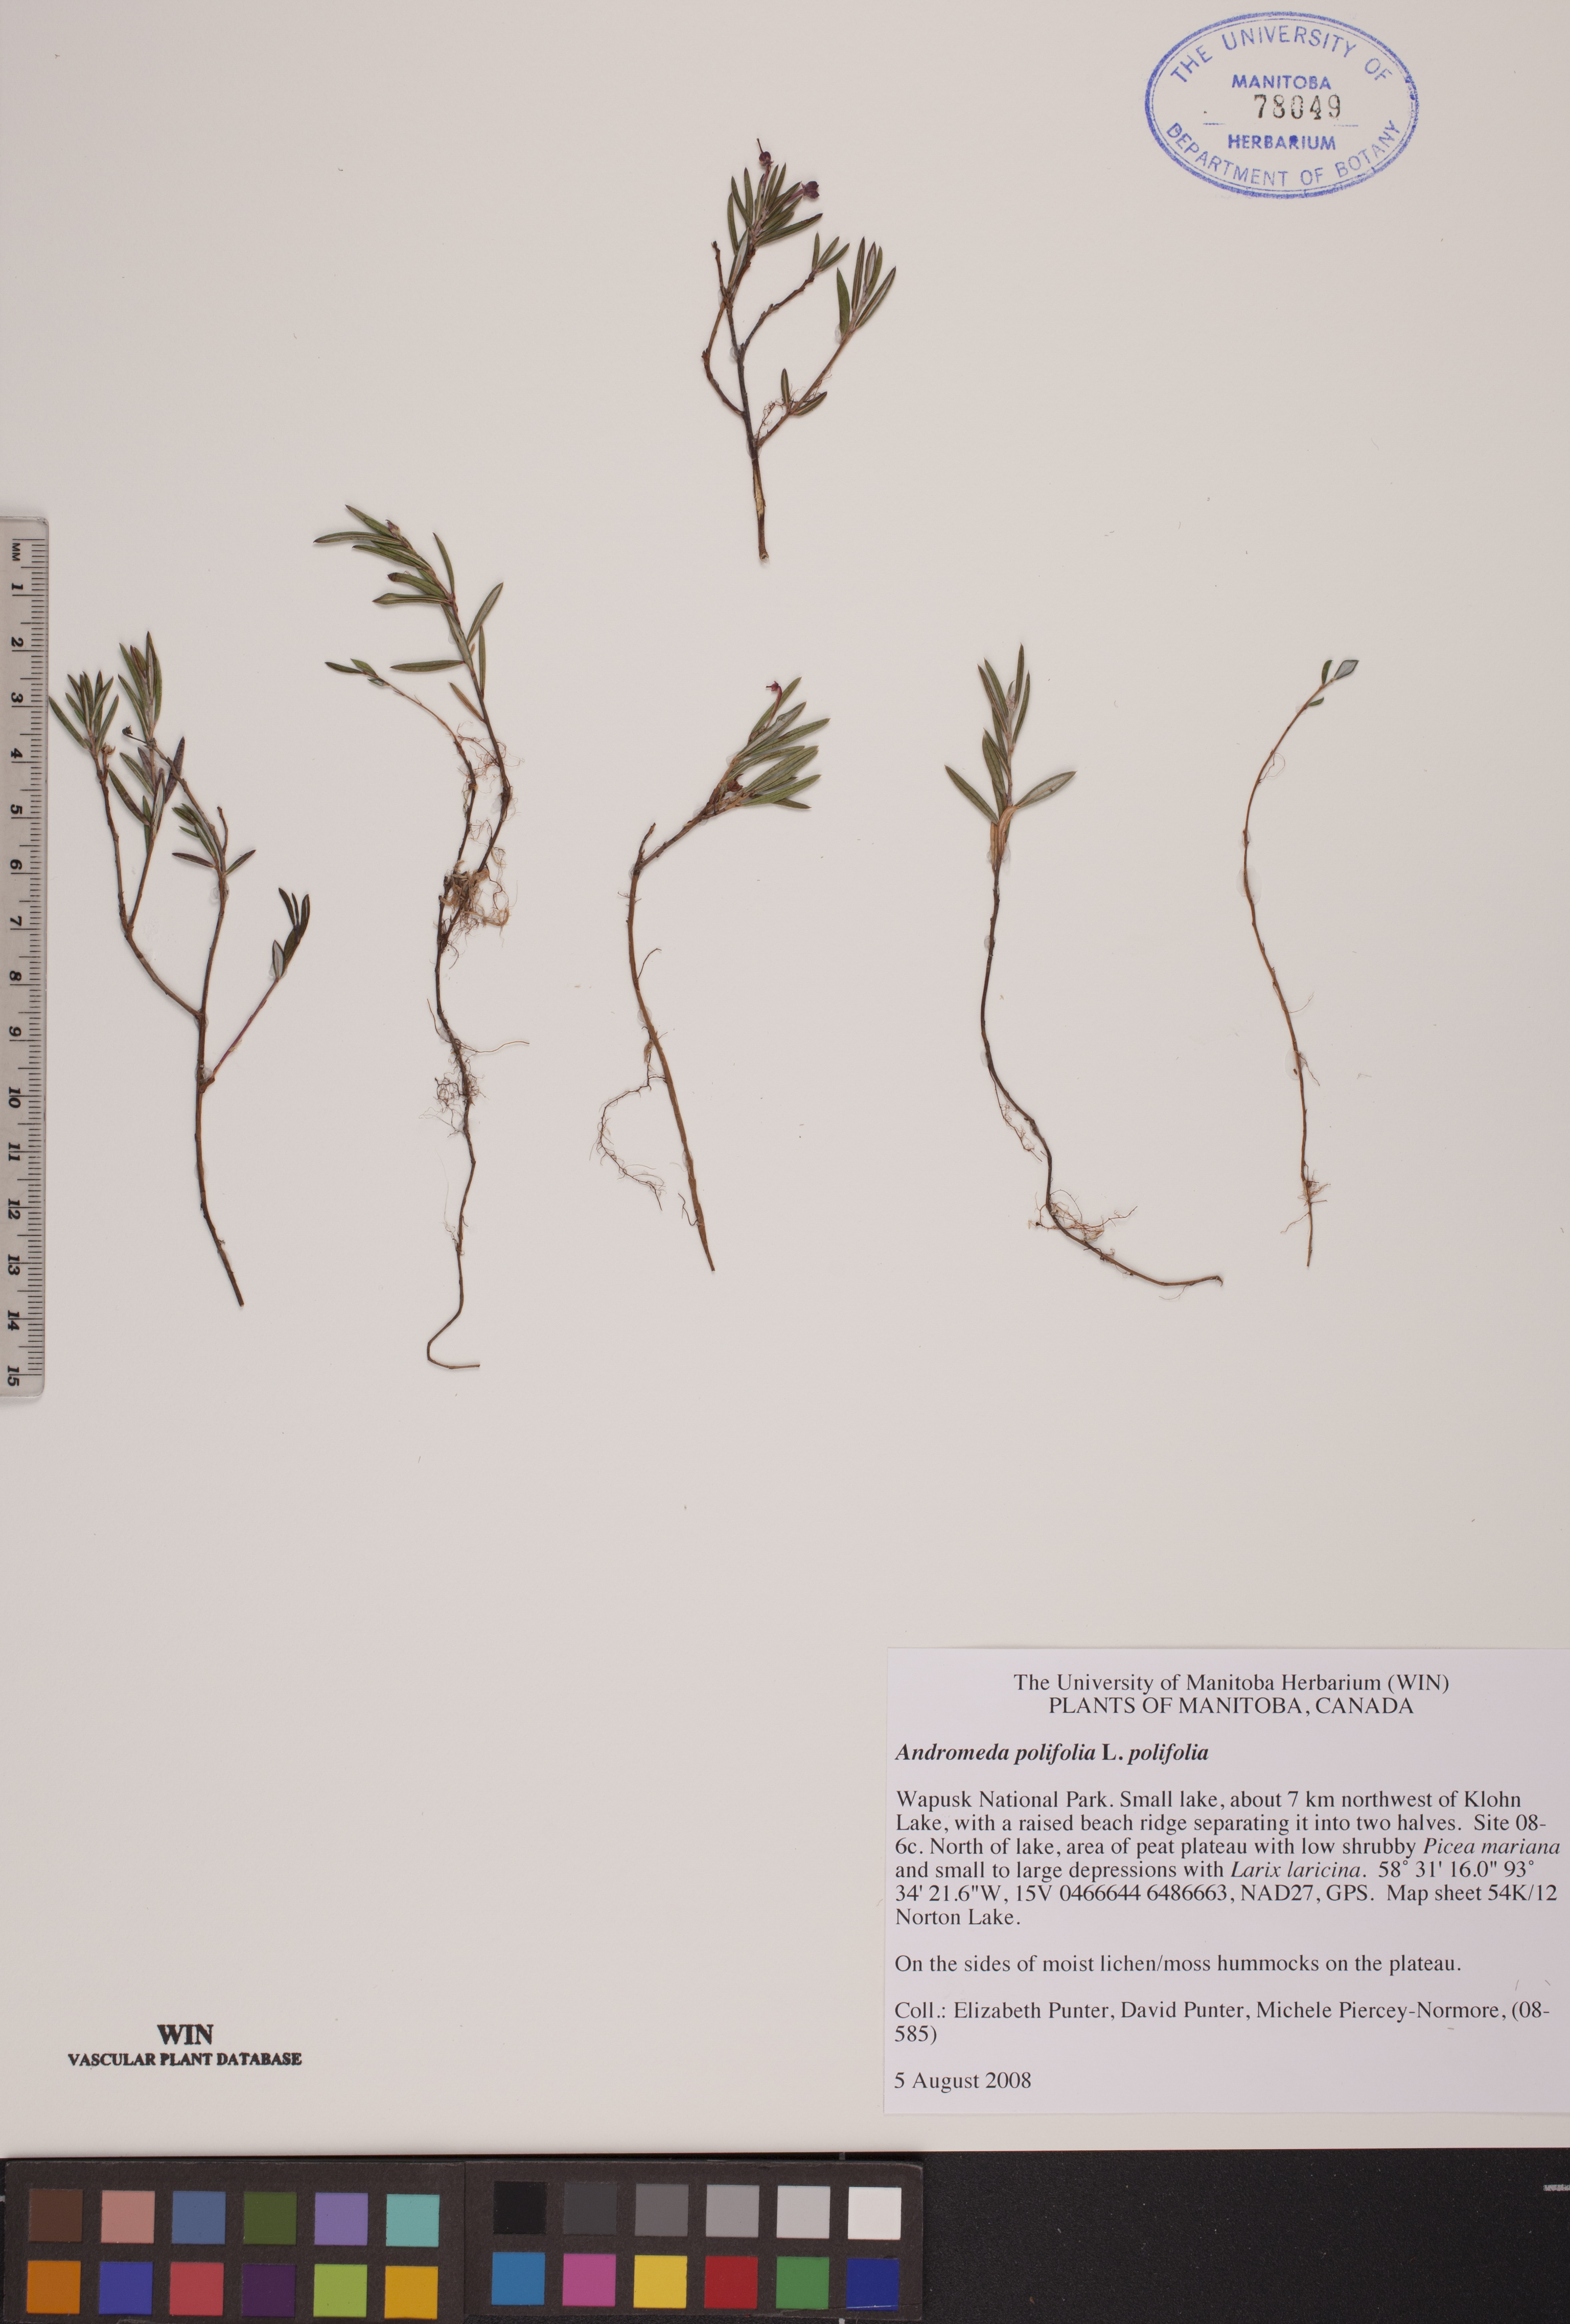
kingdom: Plantae
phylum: Tracheophyta
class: Magnoliopsida
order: Ericales
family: Ericaceae
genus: Andromeda
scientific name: Andromeda polifolia
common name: Bog-rosemary
